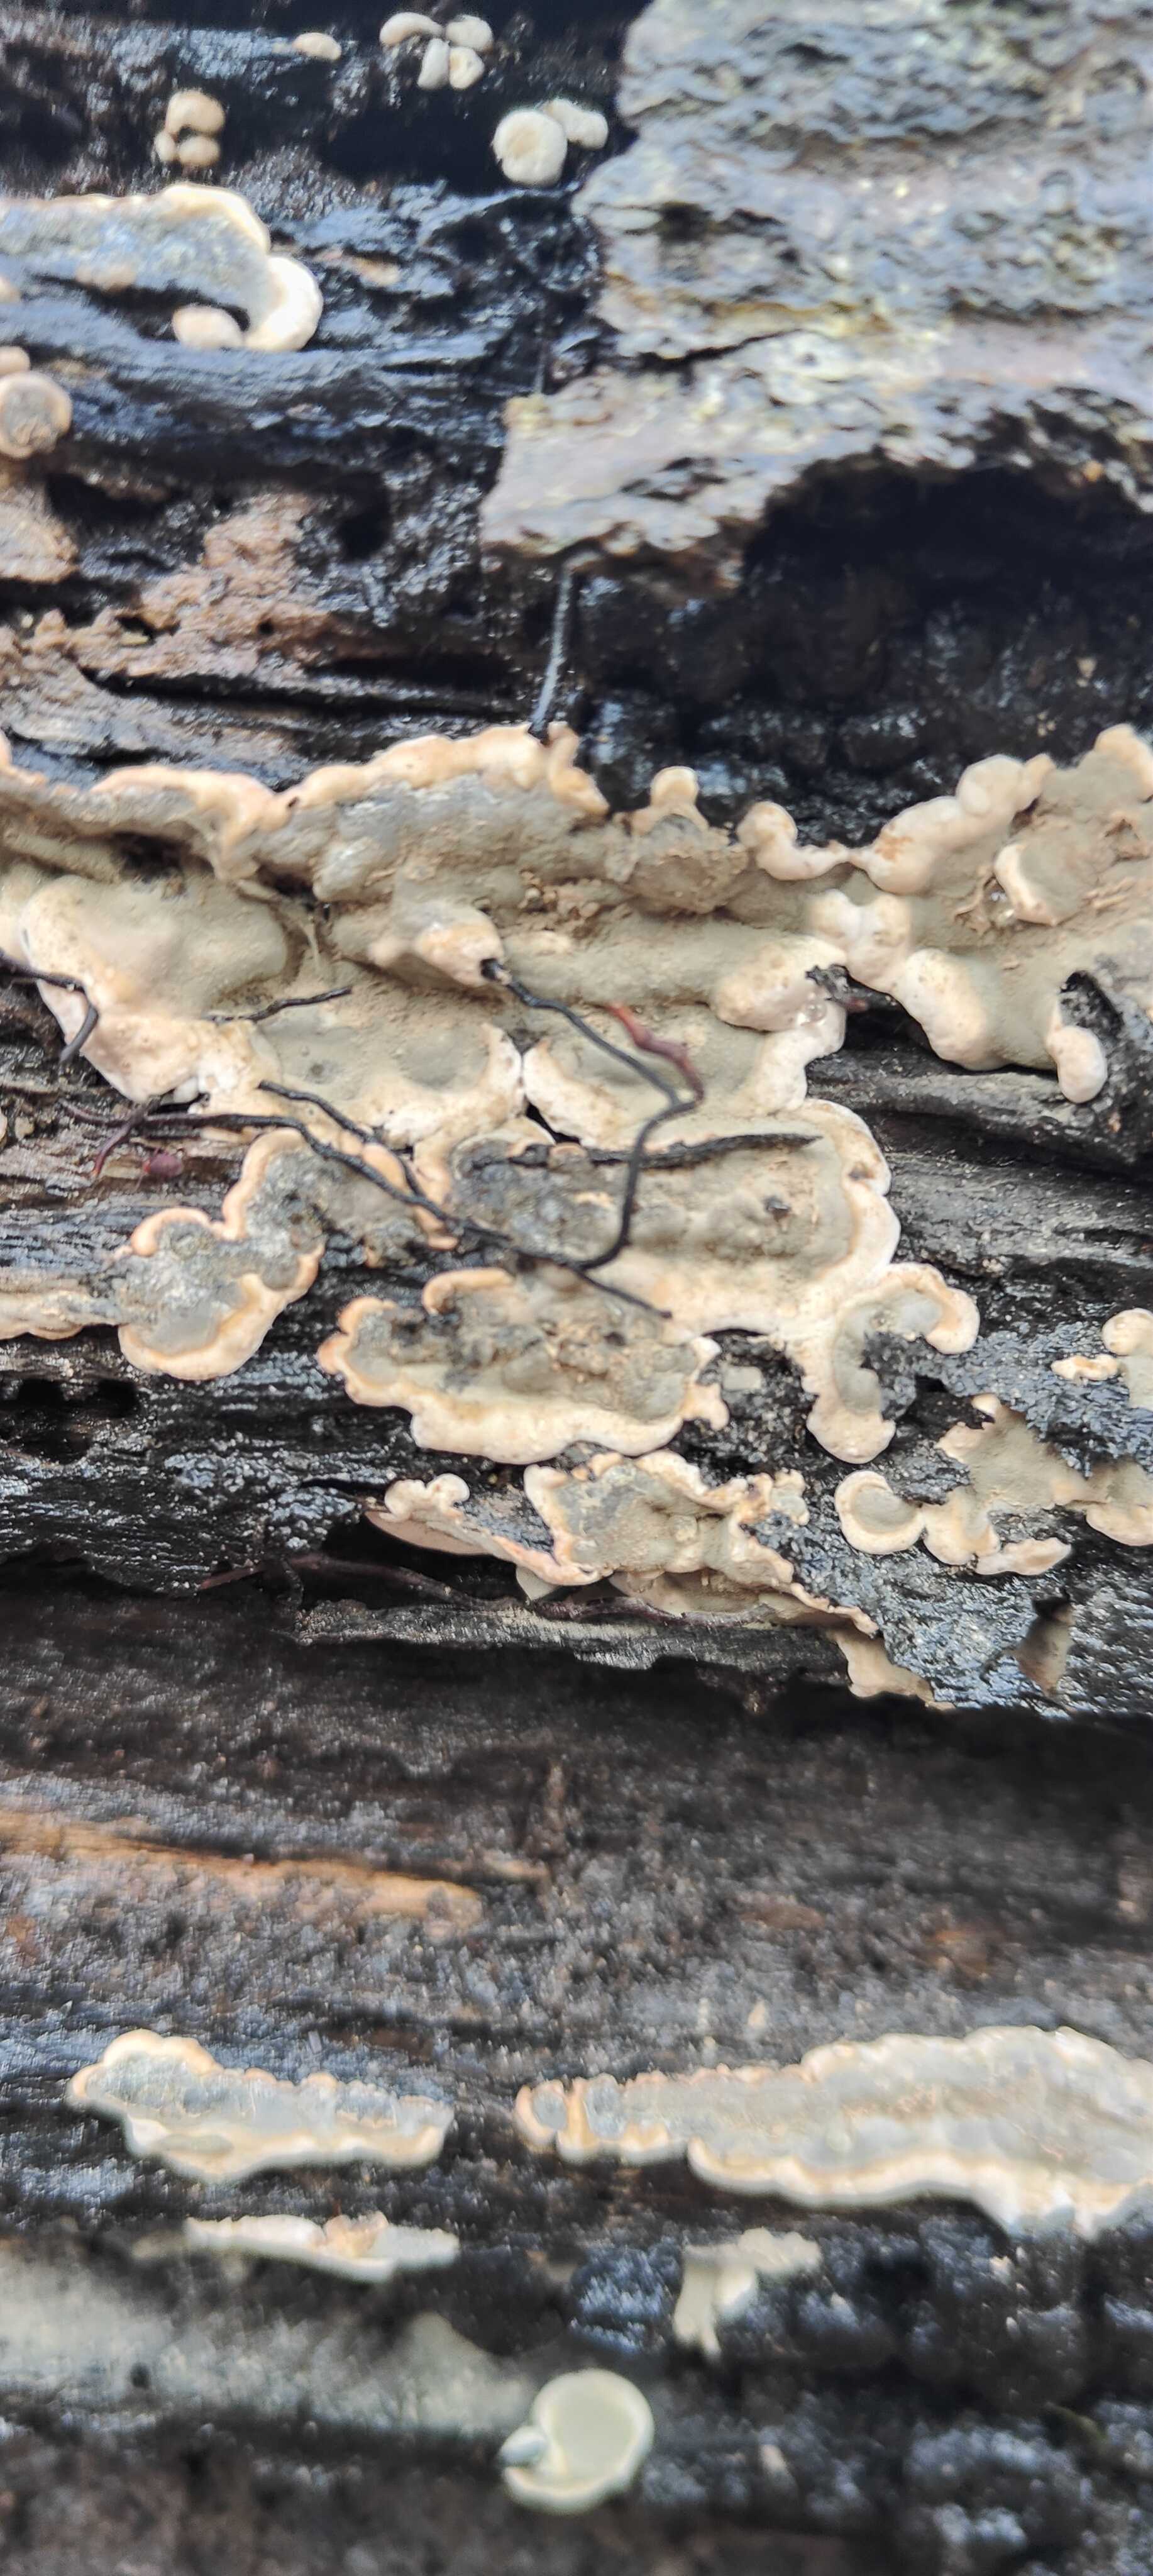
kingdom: Fungi
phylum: Basidiomycota
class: Agaricomycetes
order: Russulales
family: Stereaceae
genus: Stereum
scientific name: Stereum rugosum
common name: rynket lædersvamp
